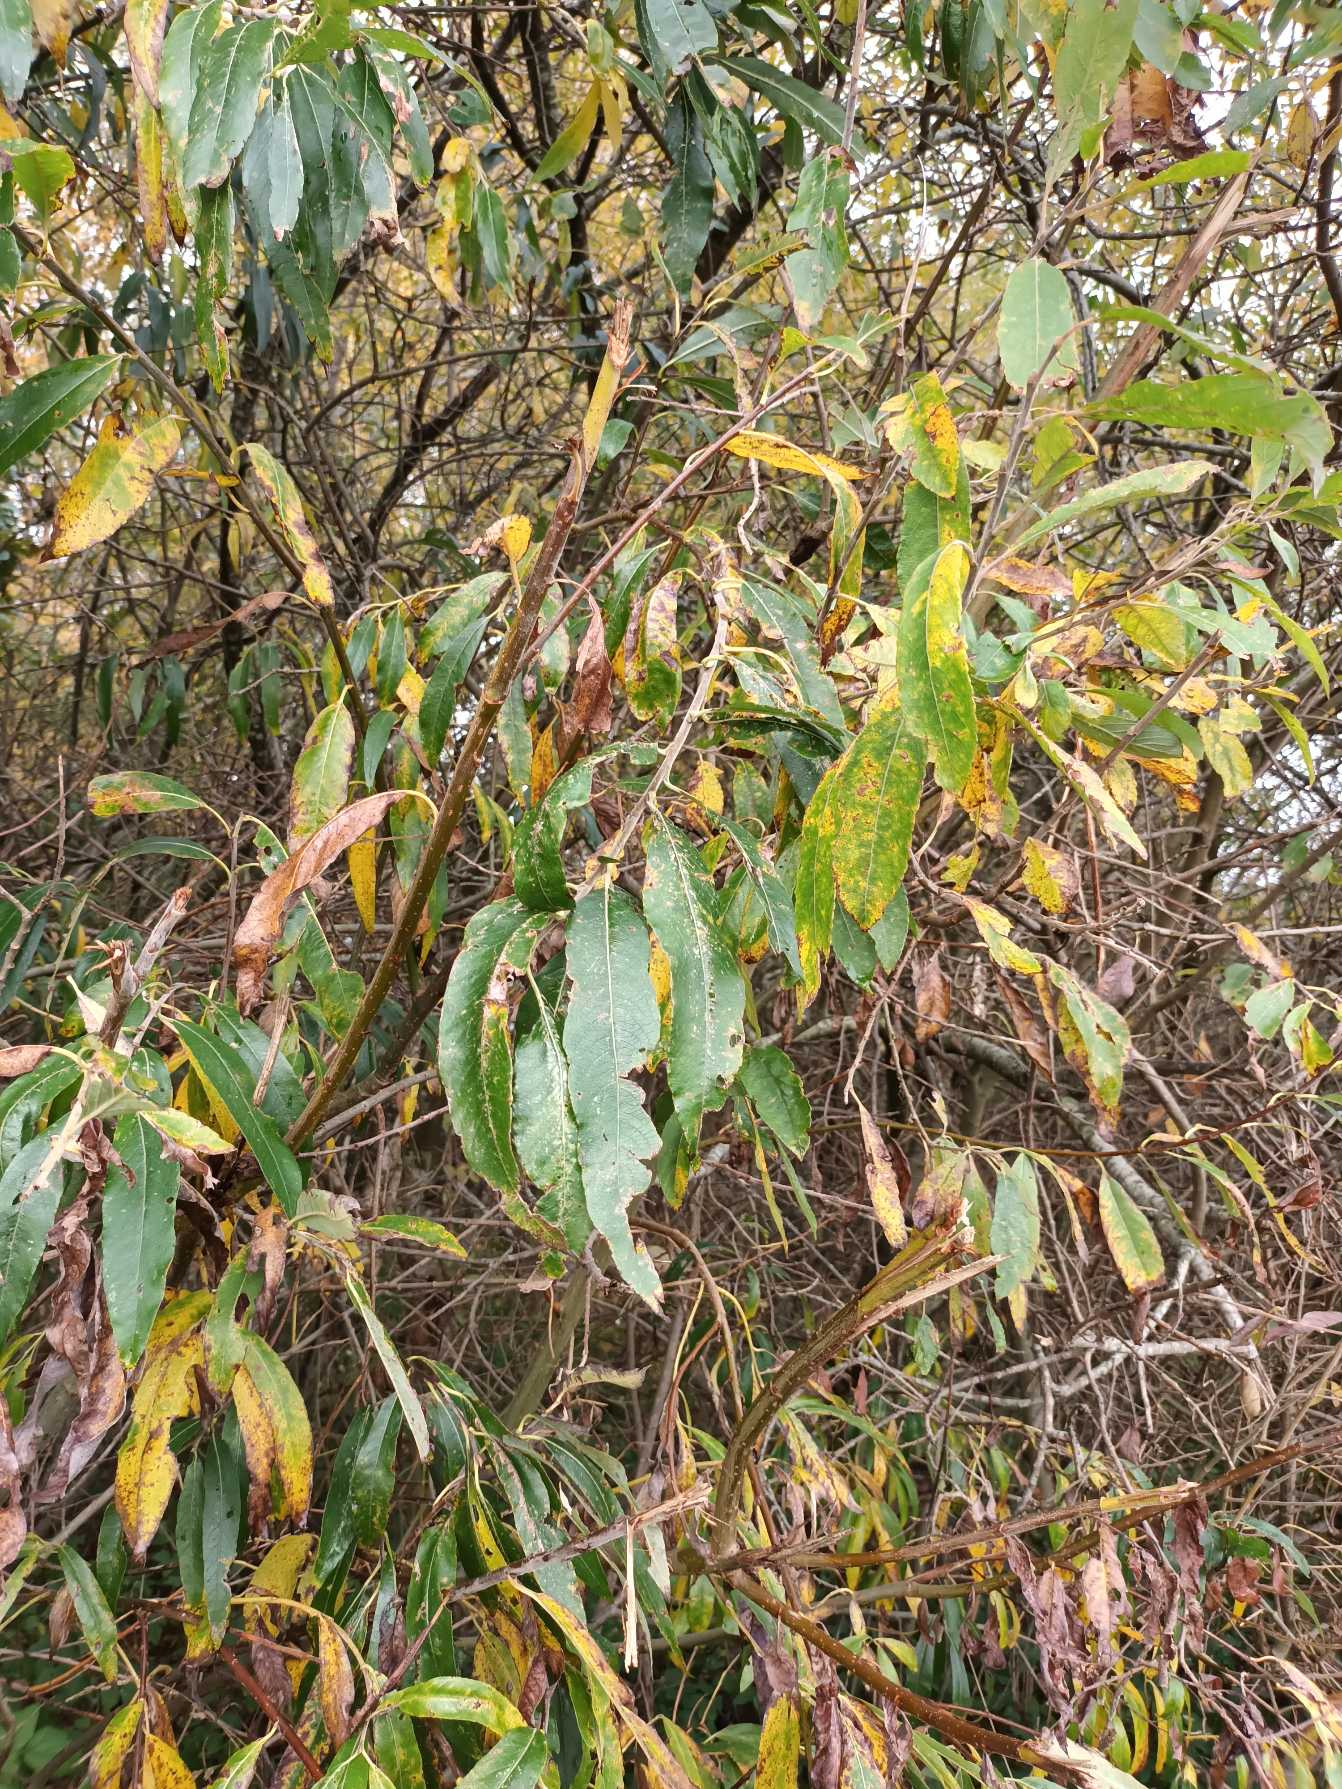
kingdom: Plantae
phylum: Tracheophyta
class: Magnoliopsida
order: Malpighiales
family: Salicaceae
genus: Salix
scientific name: Salix gmelinii
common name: Lådden pil
